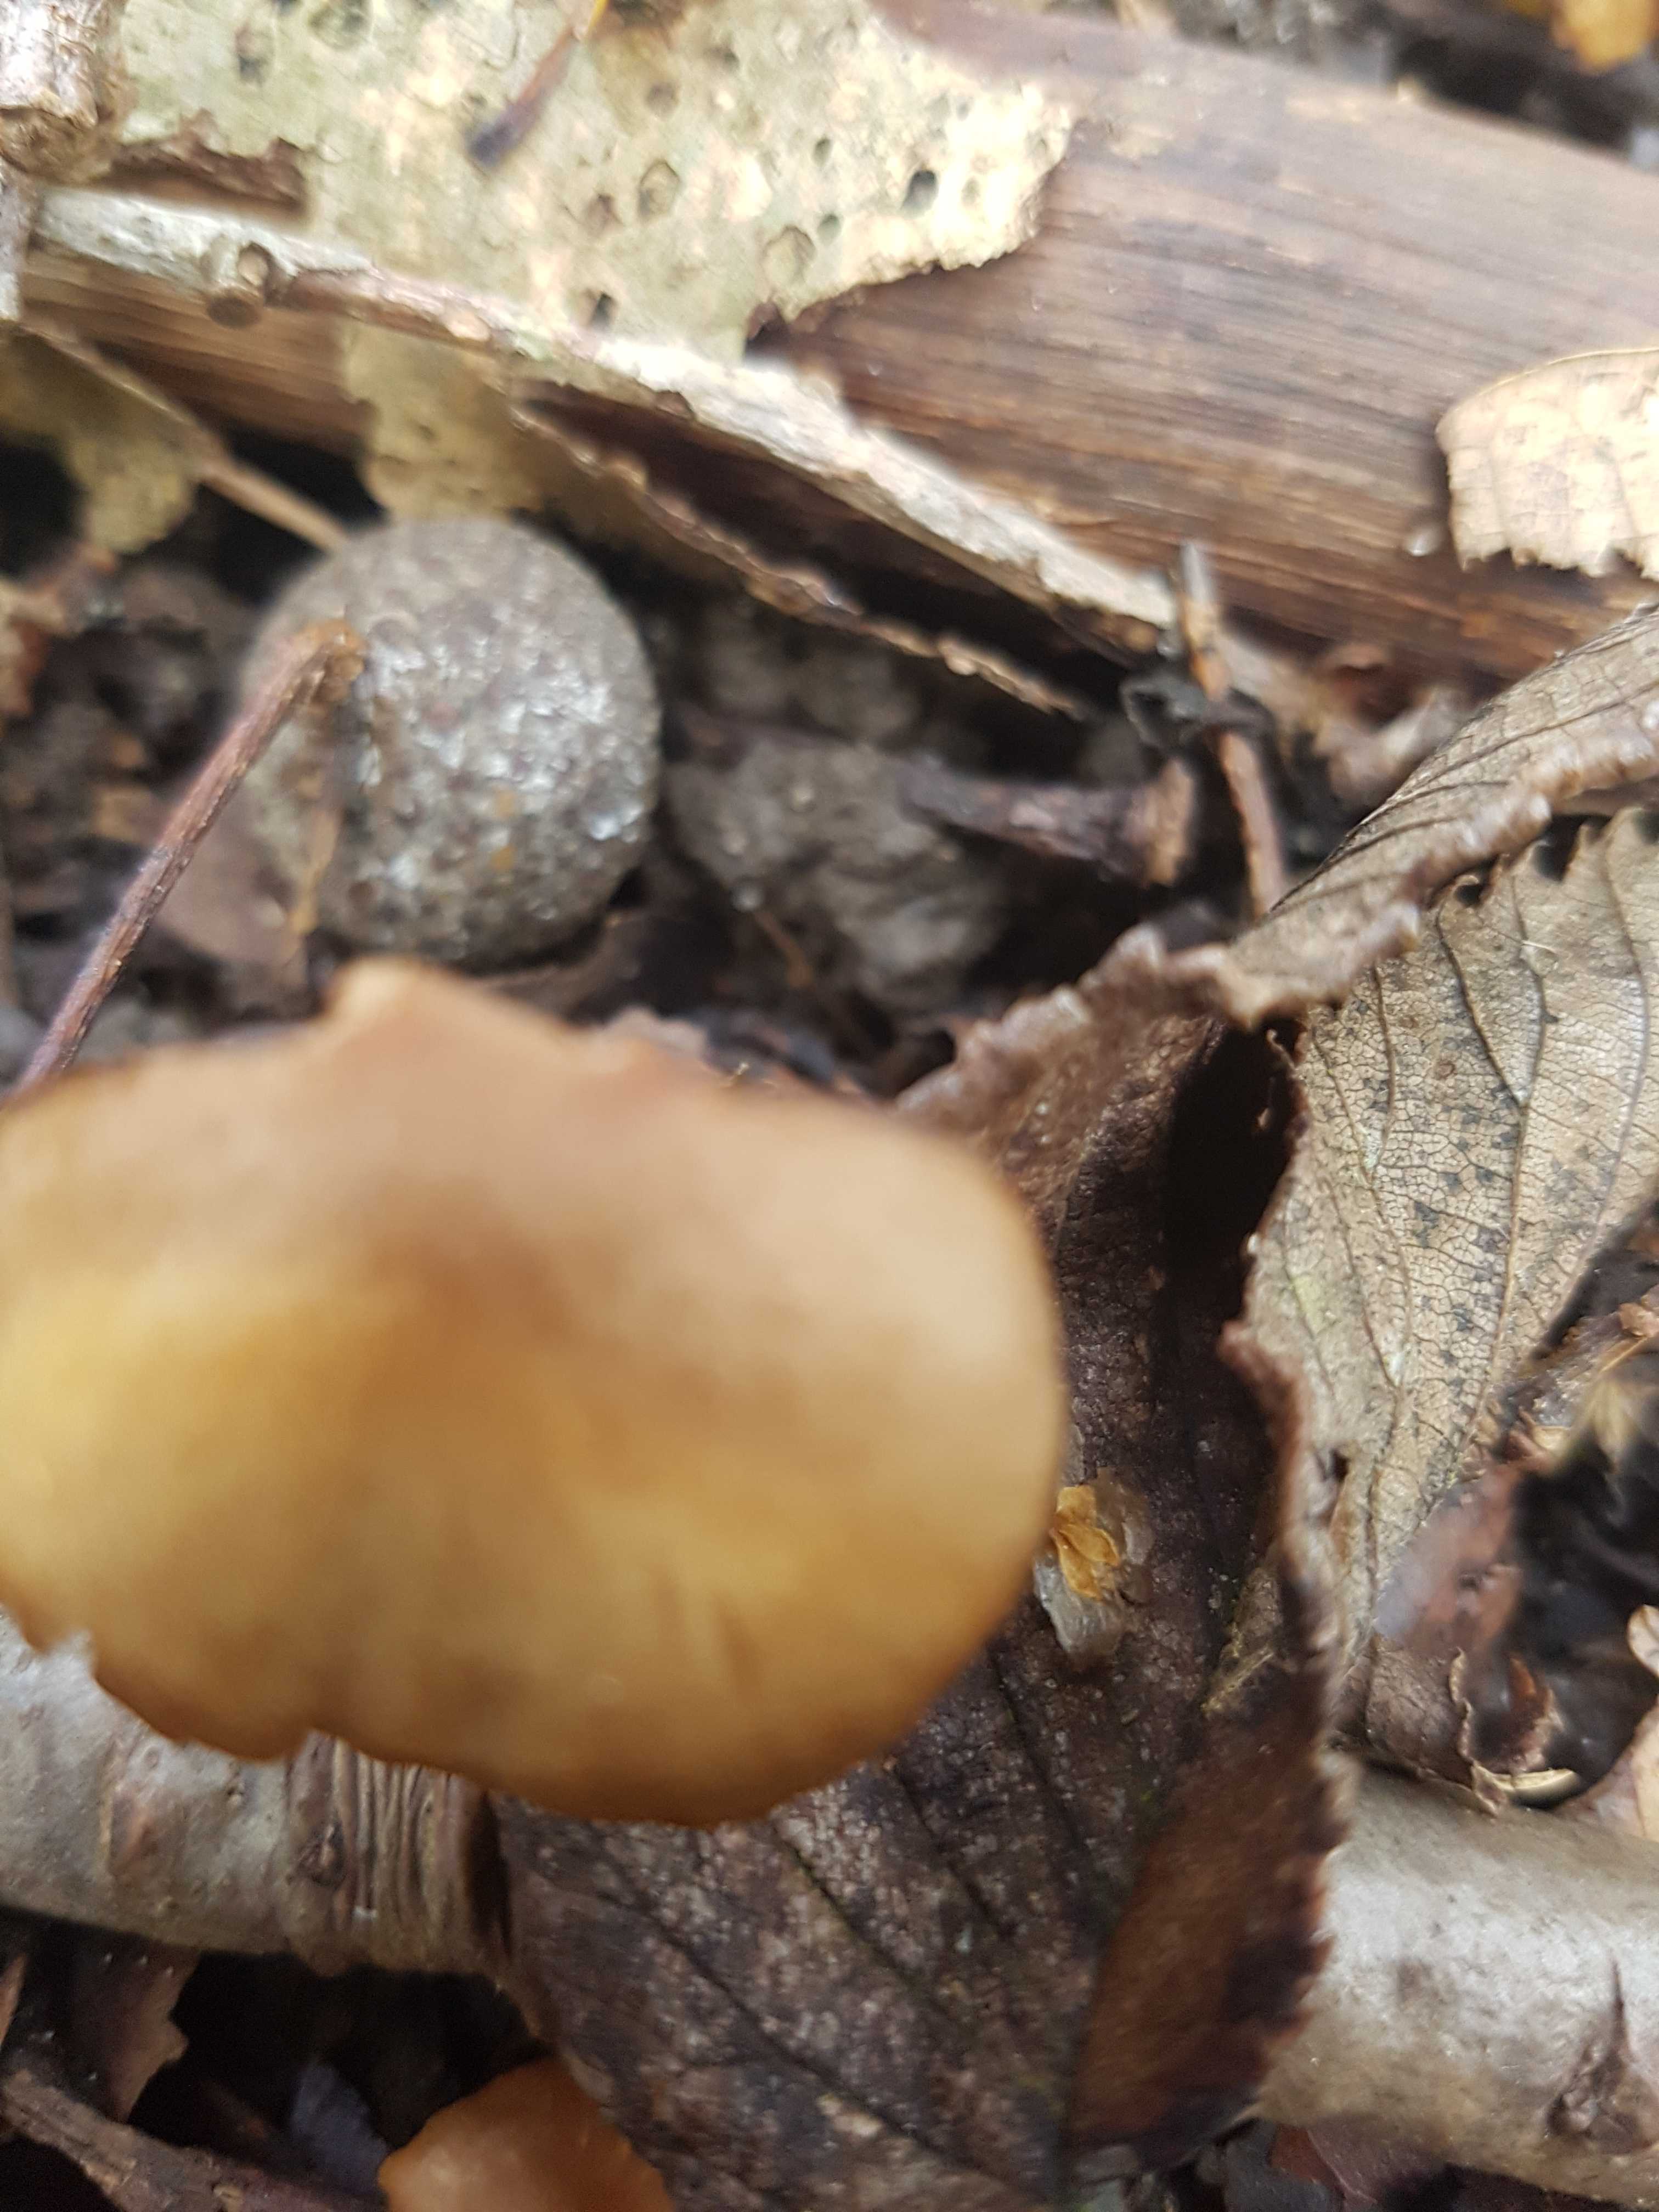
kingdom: Fungi
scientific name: Fungi
